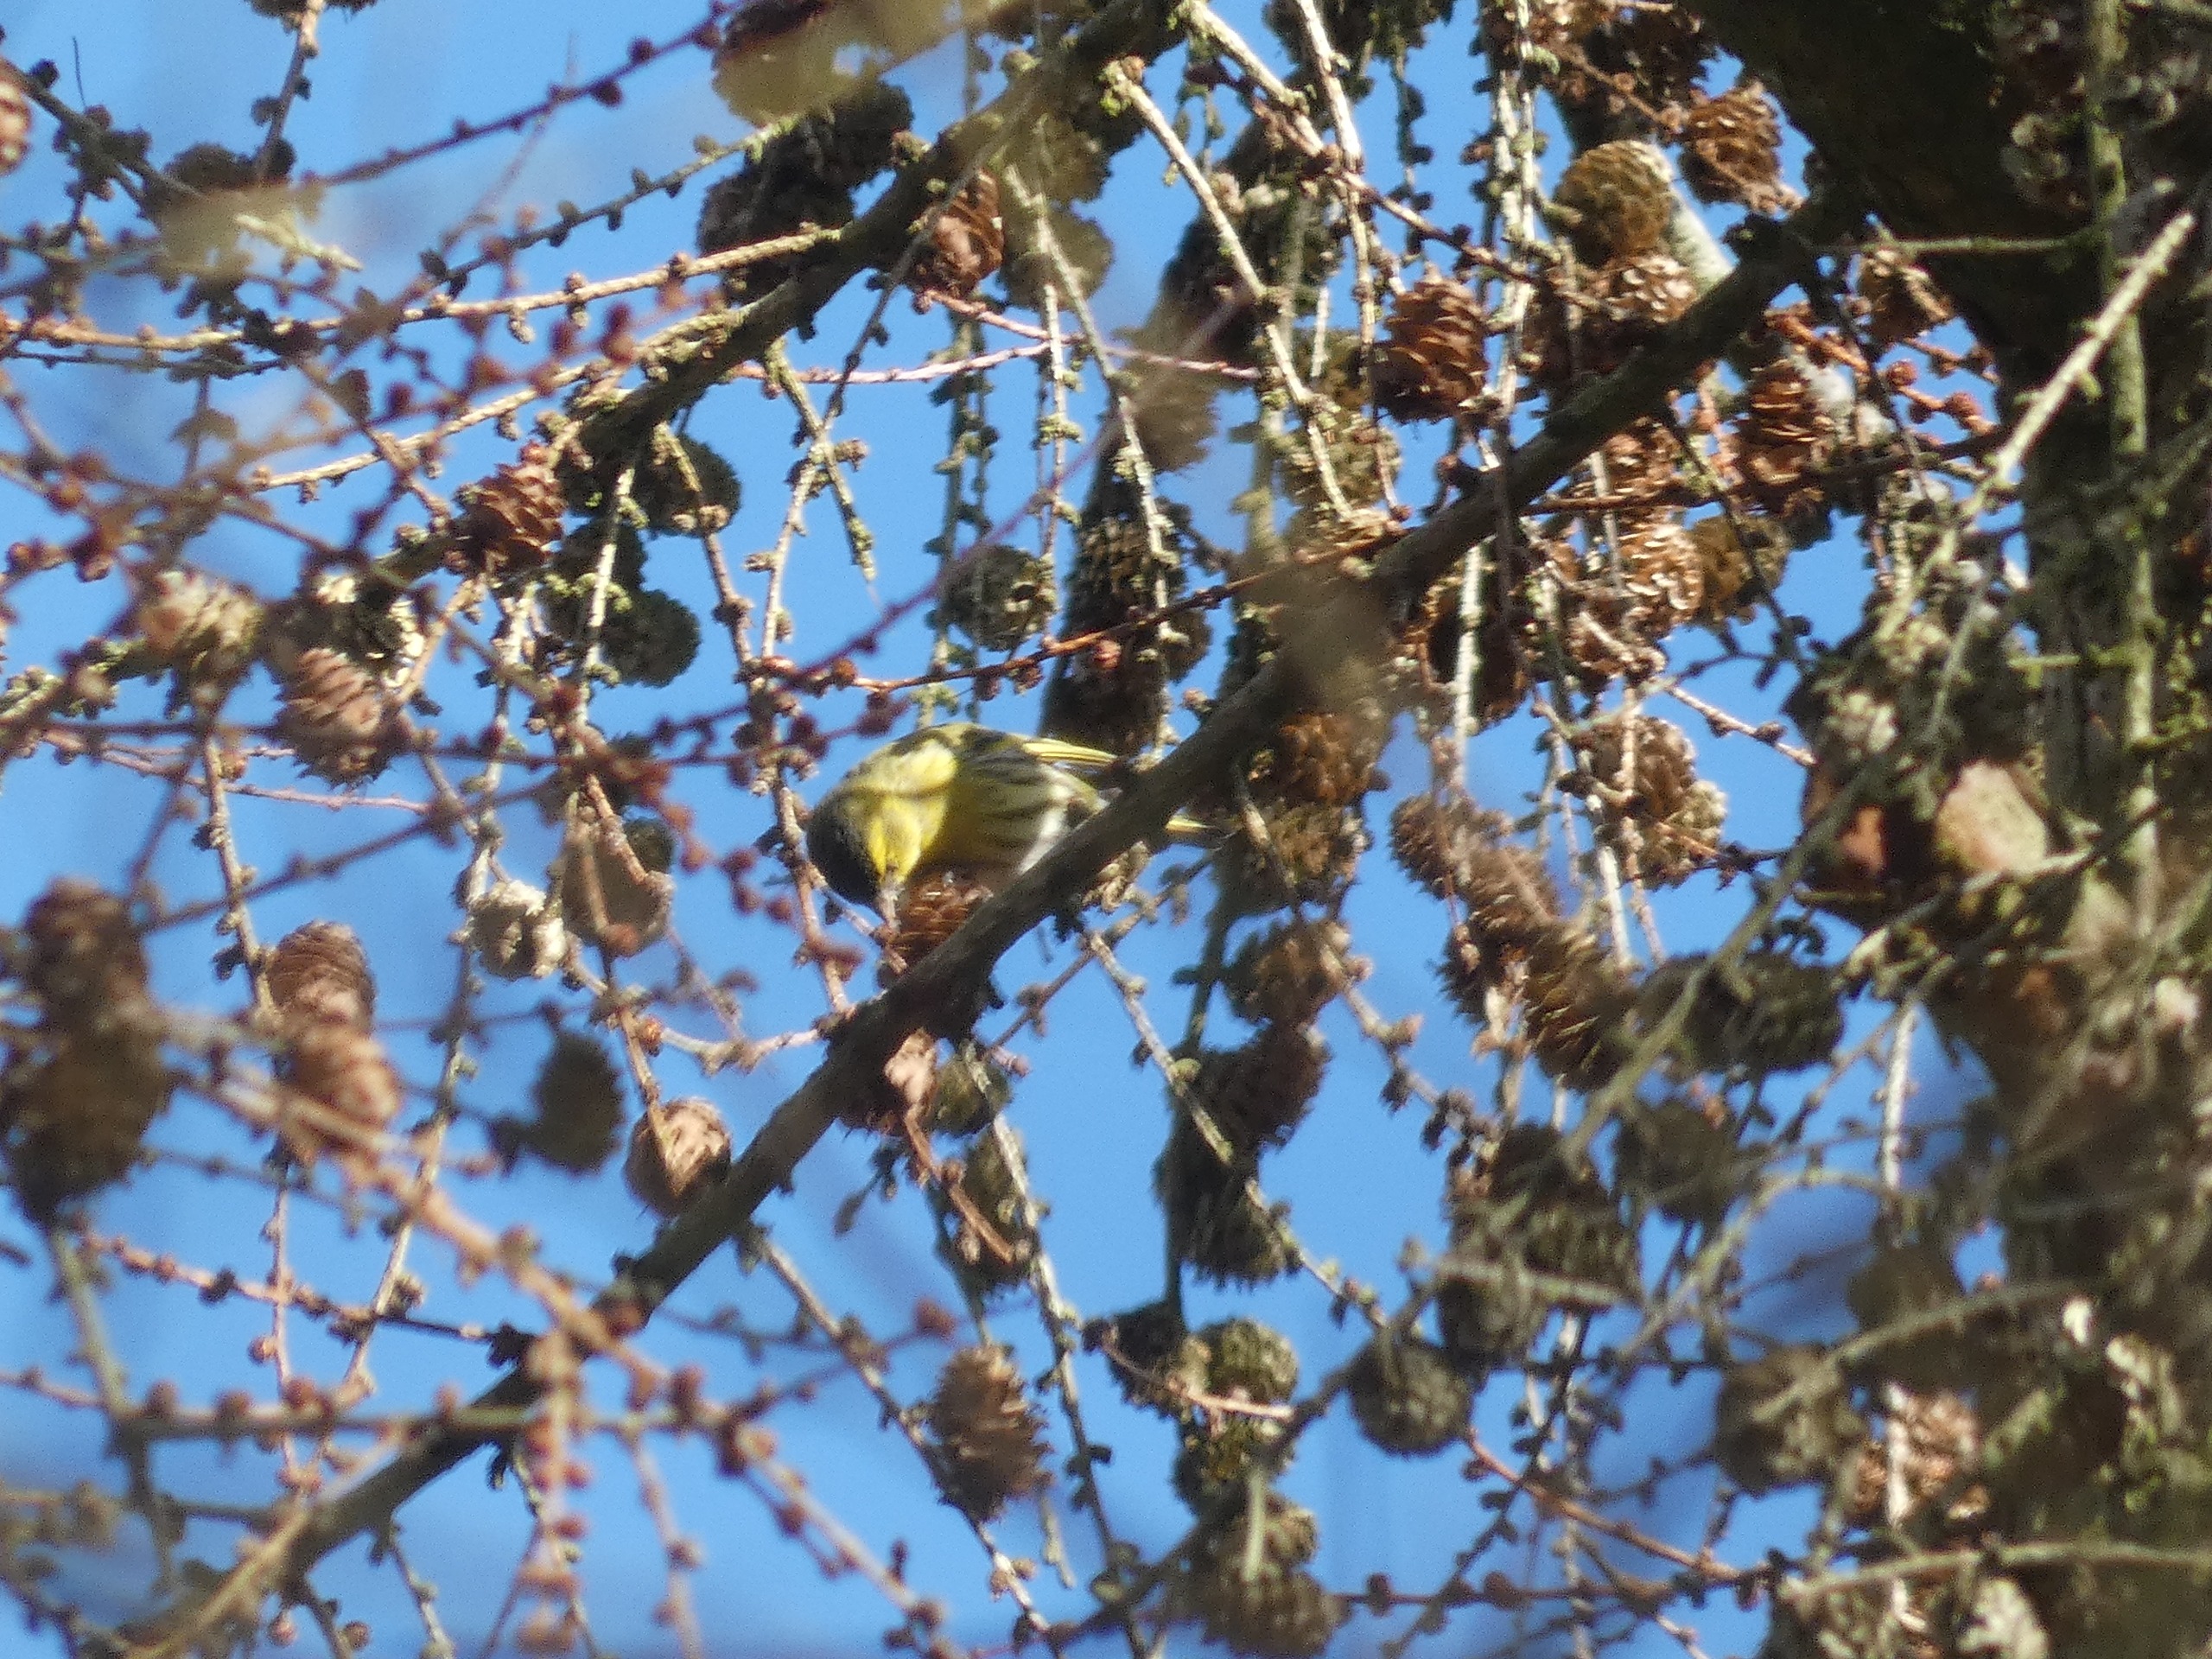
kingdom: Animalia
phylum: Chordata
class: Aves
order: Passeriformes
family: Fringillidae
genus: Spinus
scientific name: Spinus spinus
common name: Grønsisken
